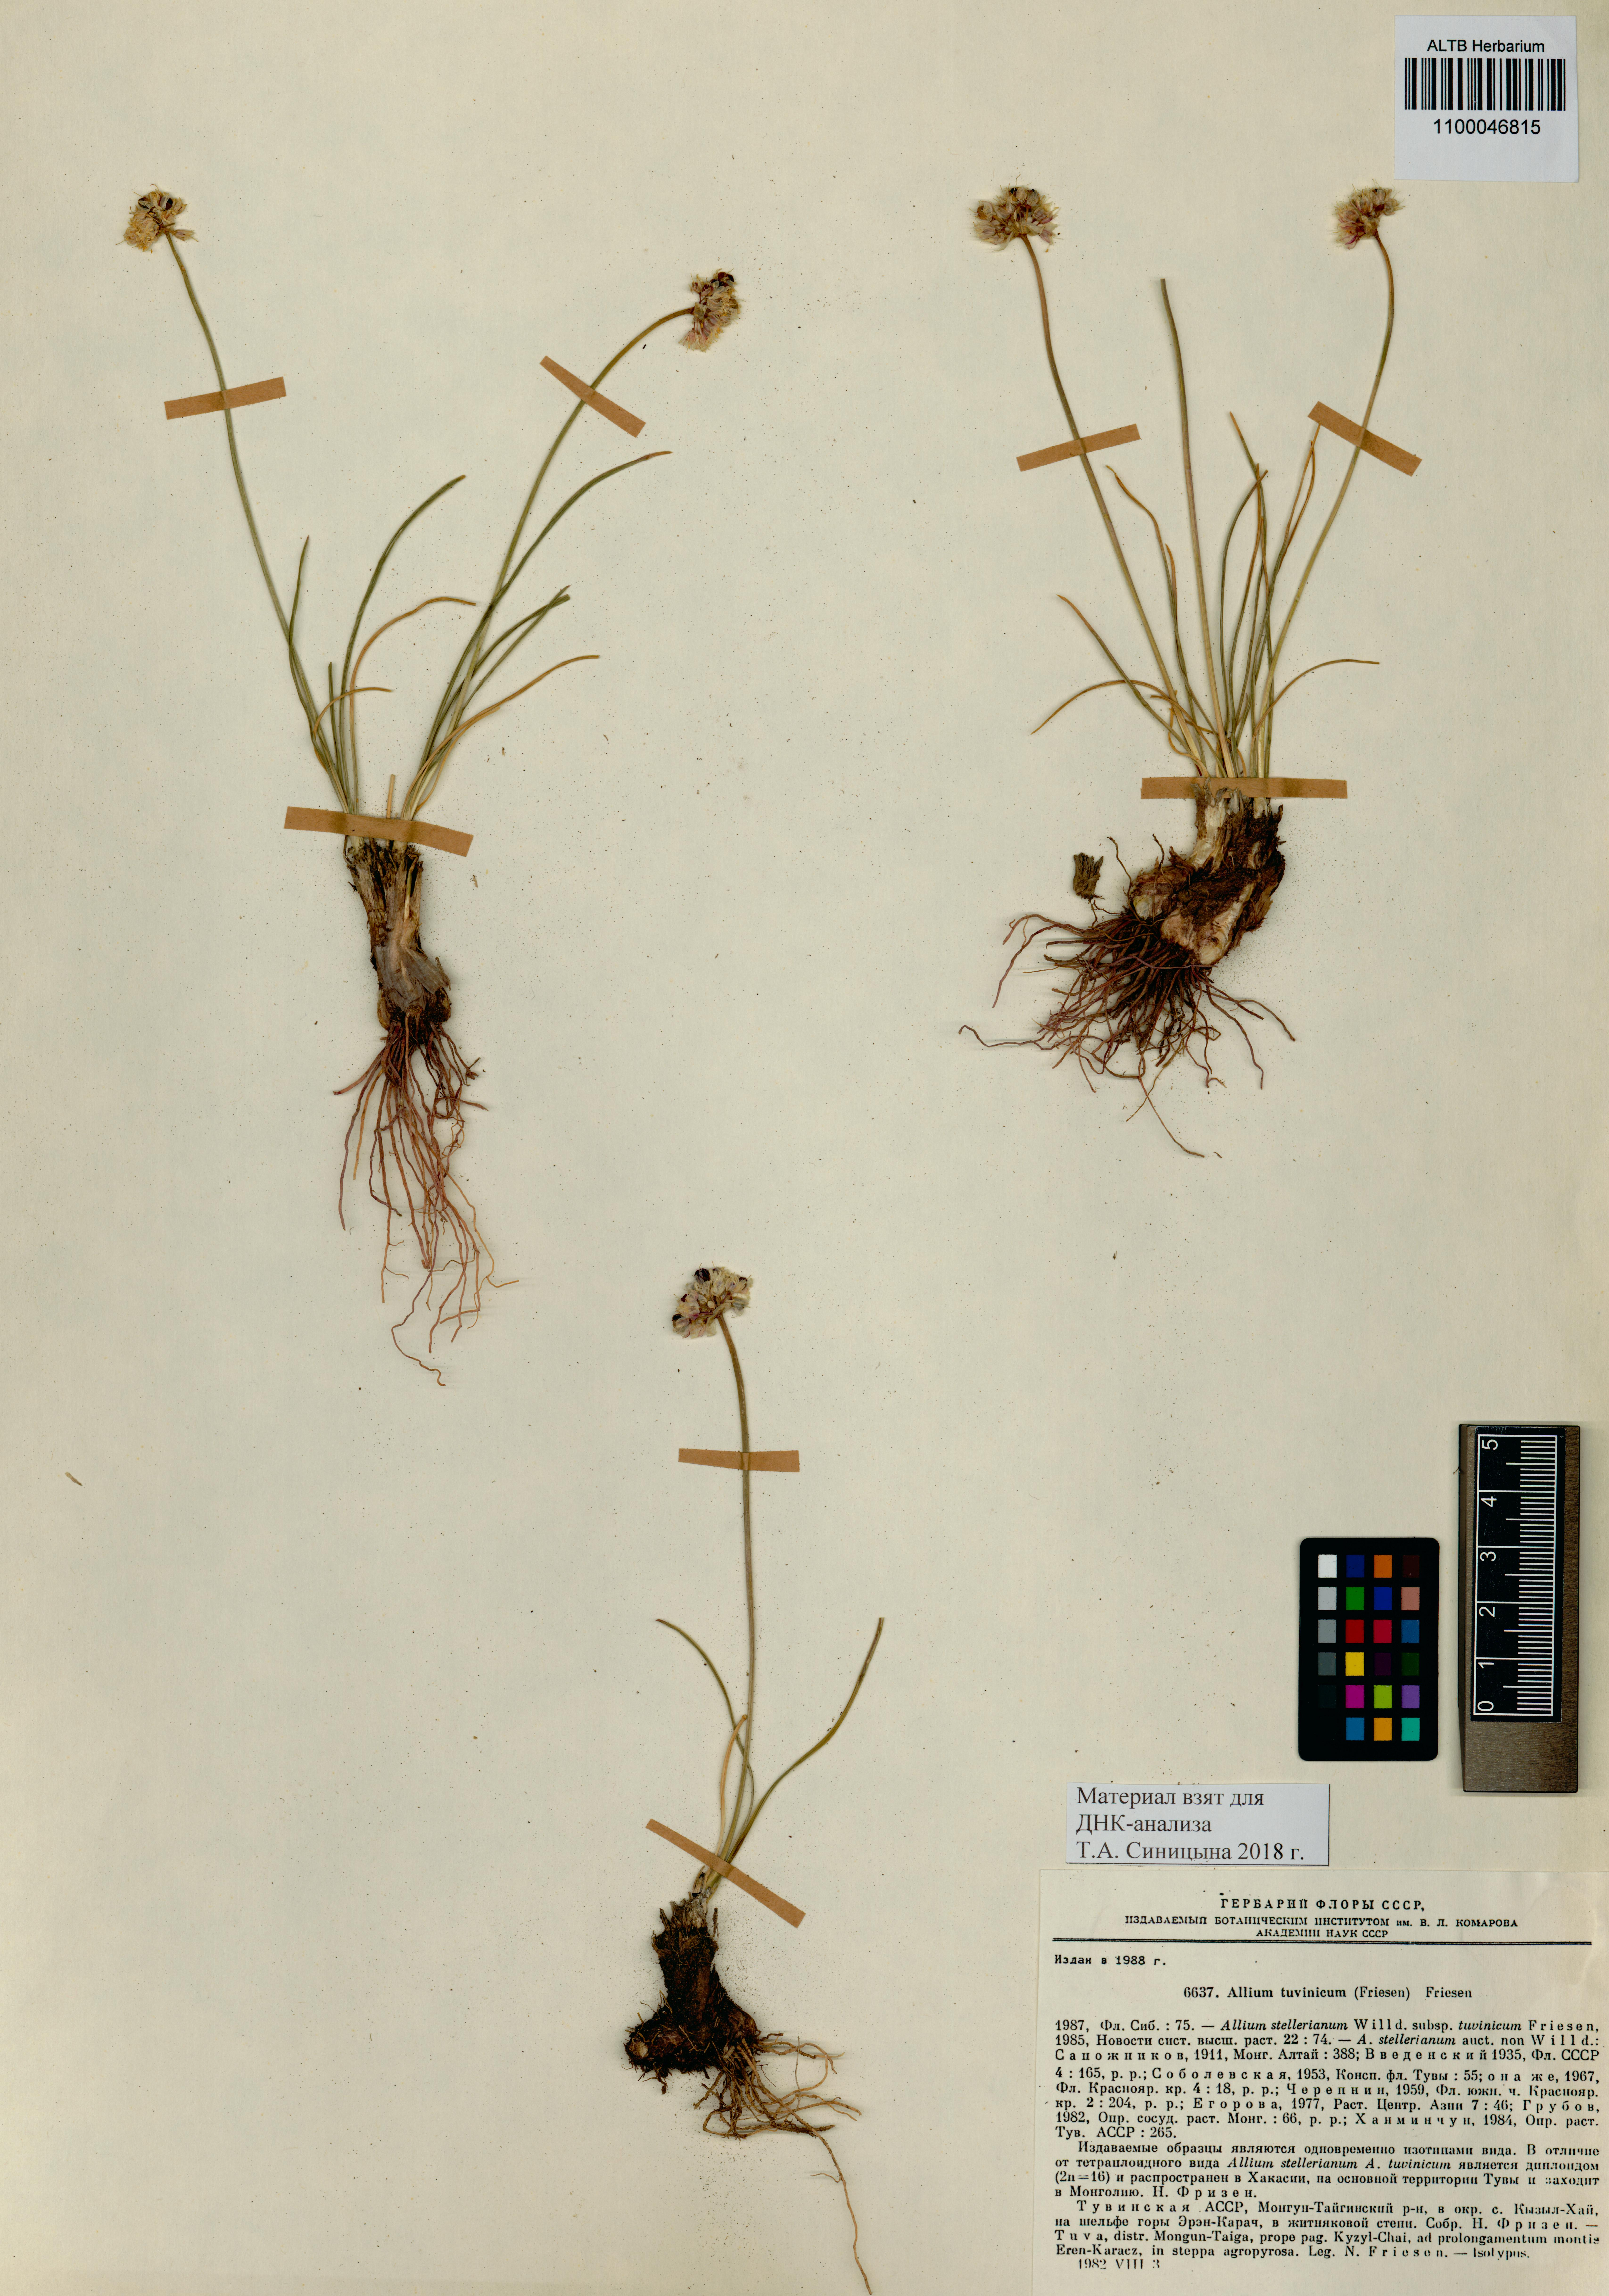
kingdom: Plantae
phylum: Tracheophyta
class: Liliopsida
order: Asparagales
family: Amaryllidaceae
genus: Allium
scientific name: Allium tuvinicum
